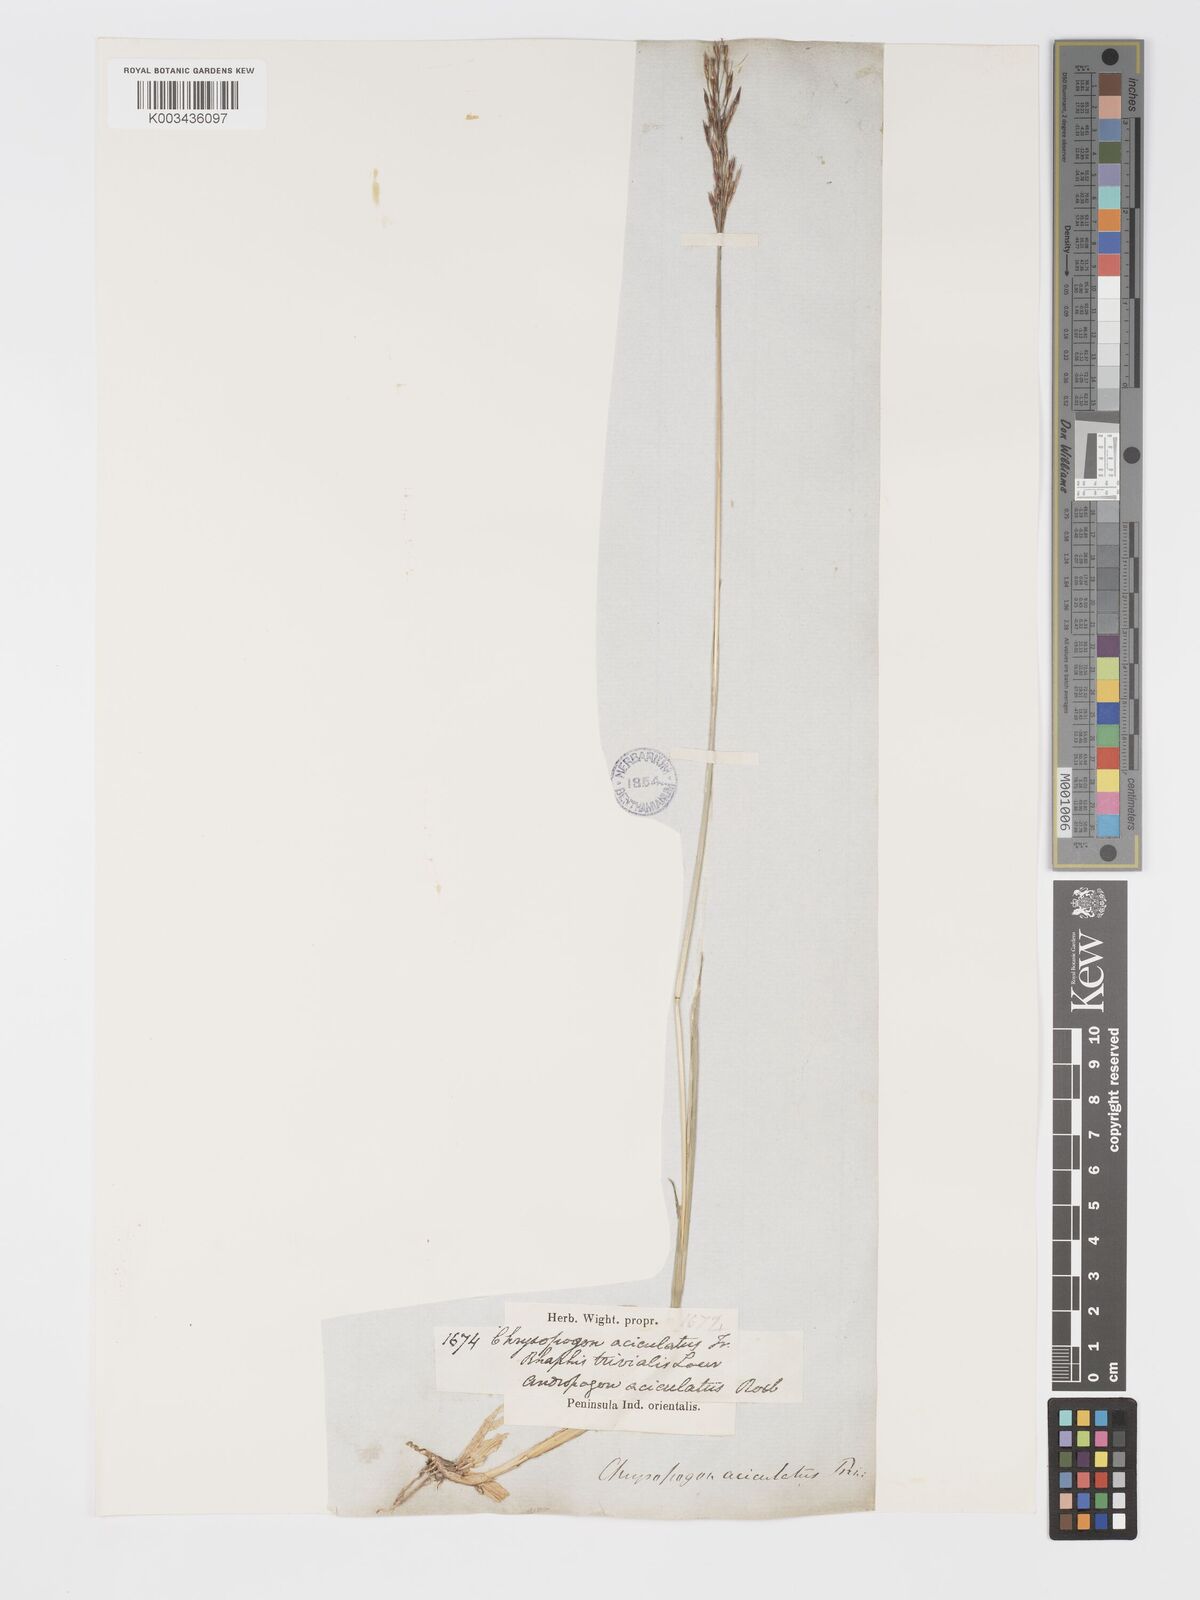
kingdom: Plantae
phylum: Tracheophyta
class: Liliopsida
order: Poales
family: Poaceae
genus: Chrysopogon
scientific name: Chrysopogon aciculatus
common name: Pilipiliula
